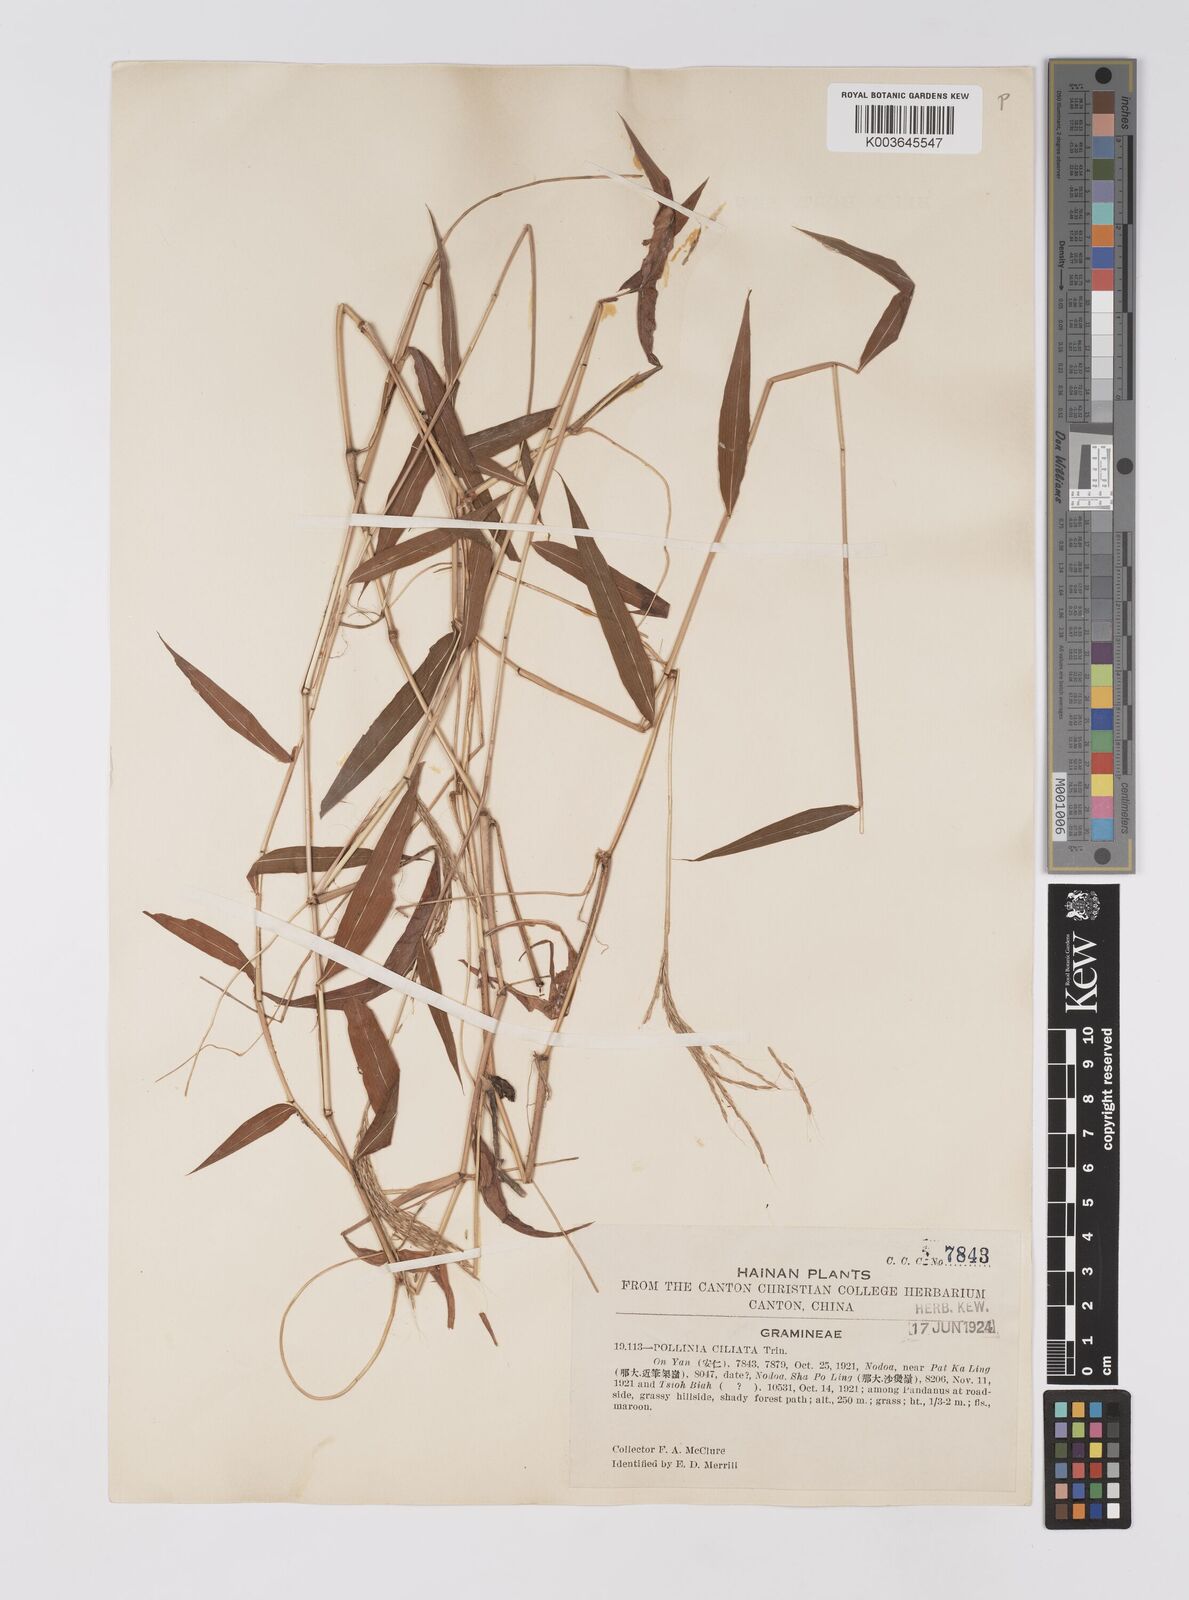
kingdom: Plantae
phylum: Tracheophyta
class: Liliopsida
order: Poales
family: Poaceae
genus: Microstegium
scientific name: Microstegium fasciculatum
